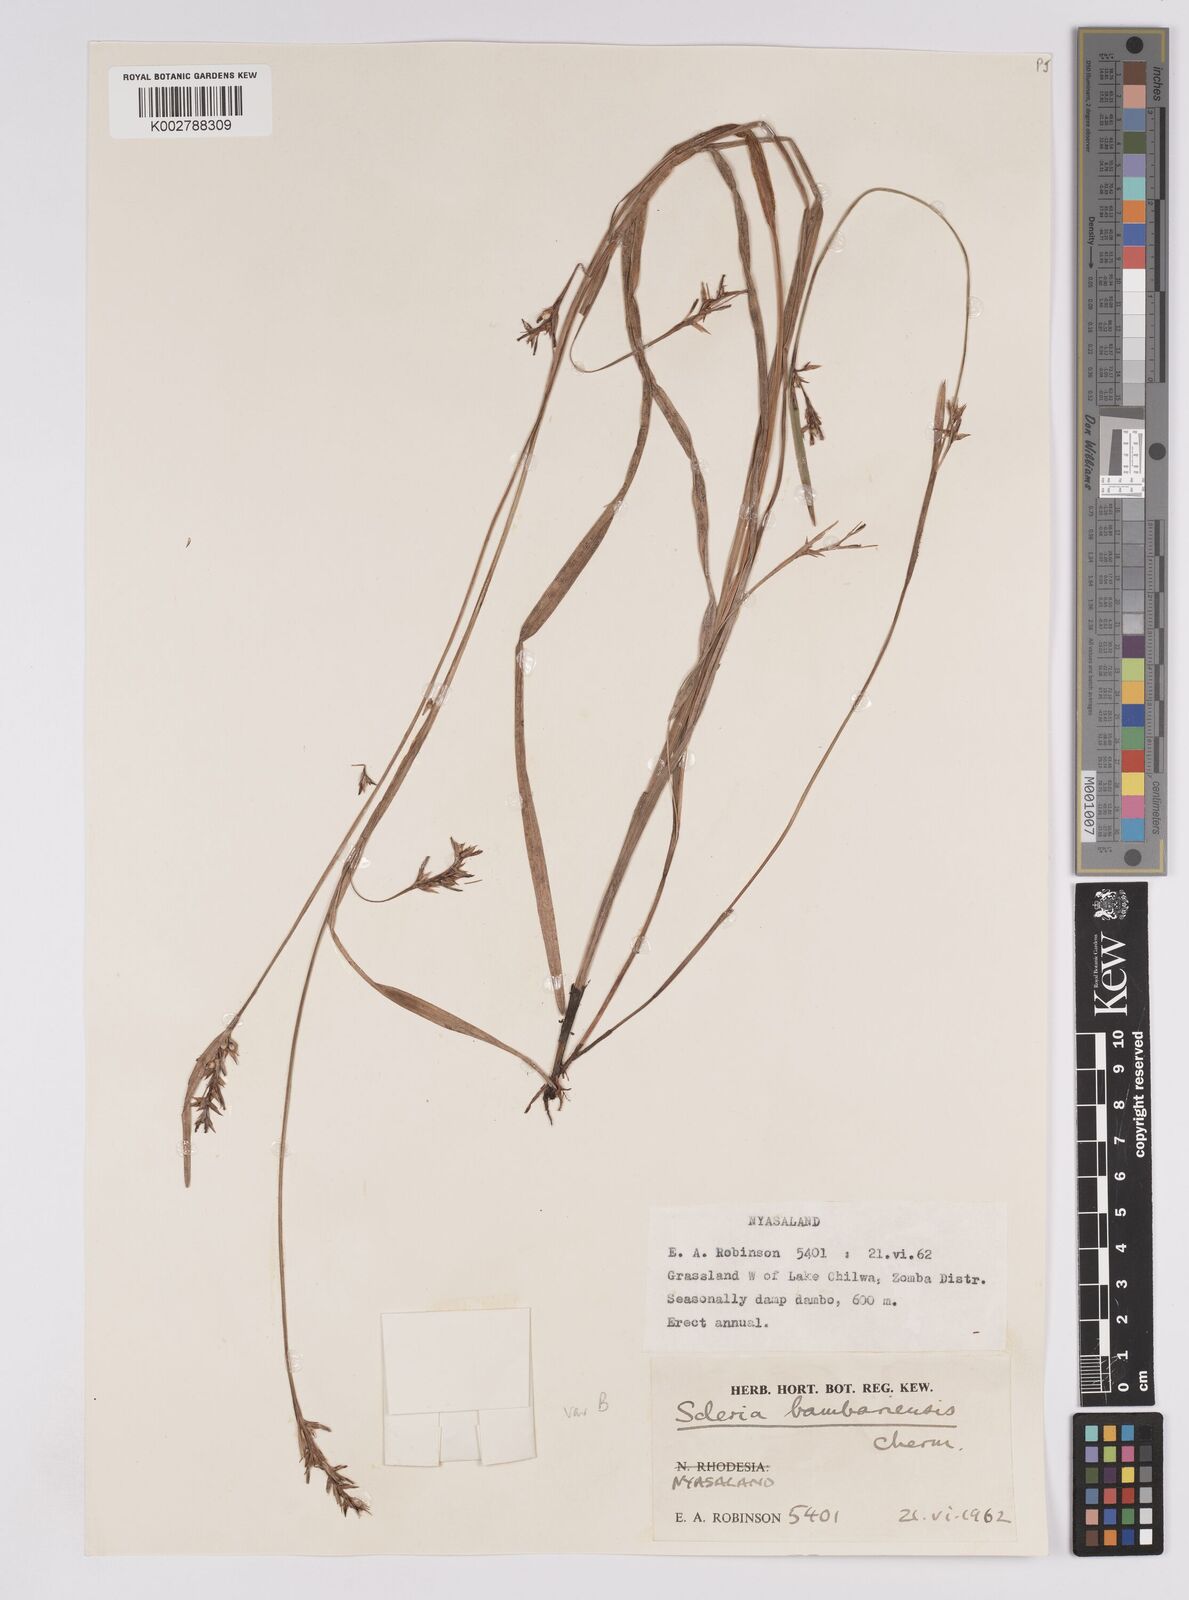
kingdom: Plantae
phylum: Tracheophyta
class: Liliopsida
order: Poales
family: Cyperaceae
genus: Scleria
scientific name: Scleria bambariensis
